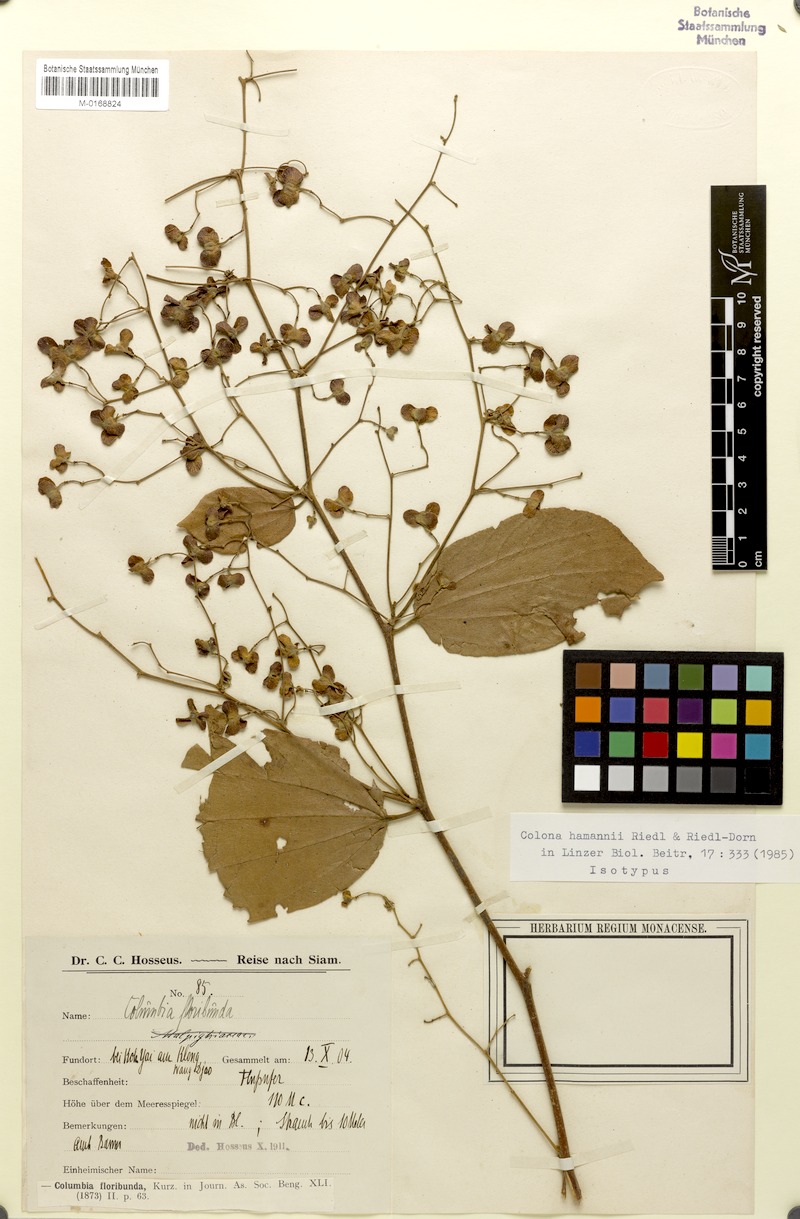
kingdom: Plantae
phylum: Tracheophyta
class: Magnoliopsida
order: Malvales
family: Malvaceae
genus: Colona
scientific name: Colona floribunda
